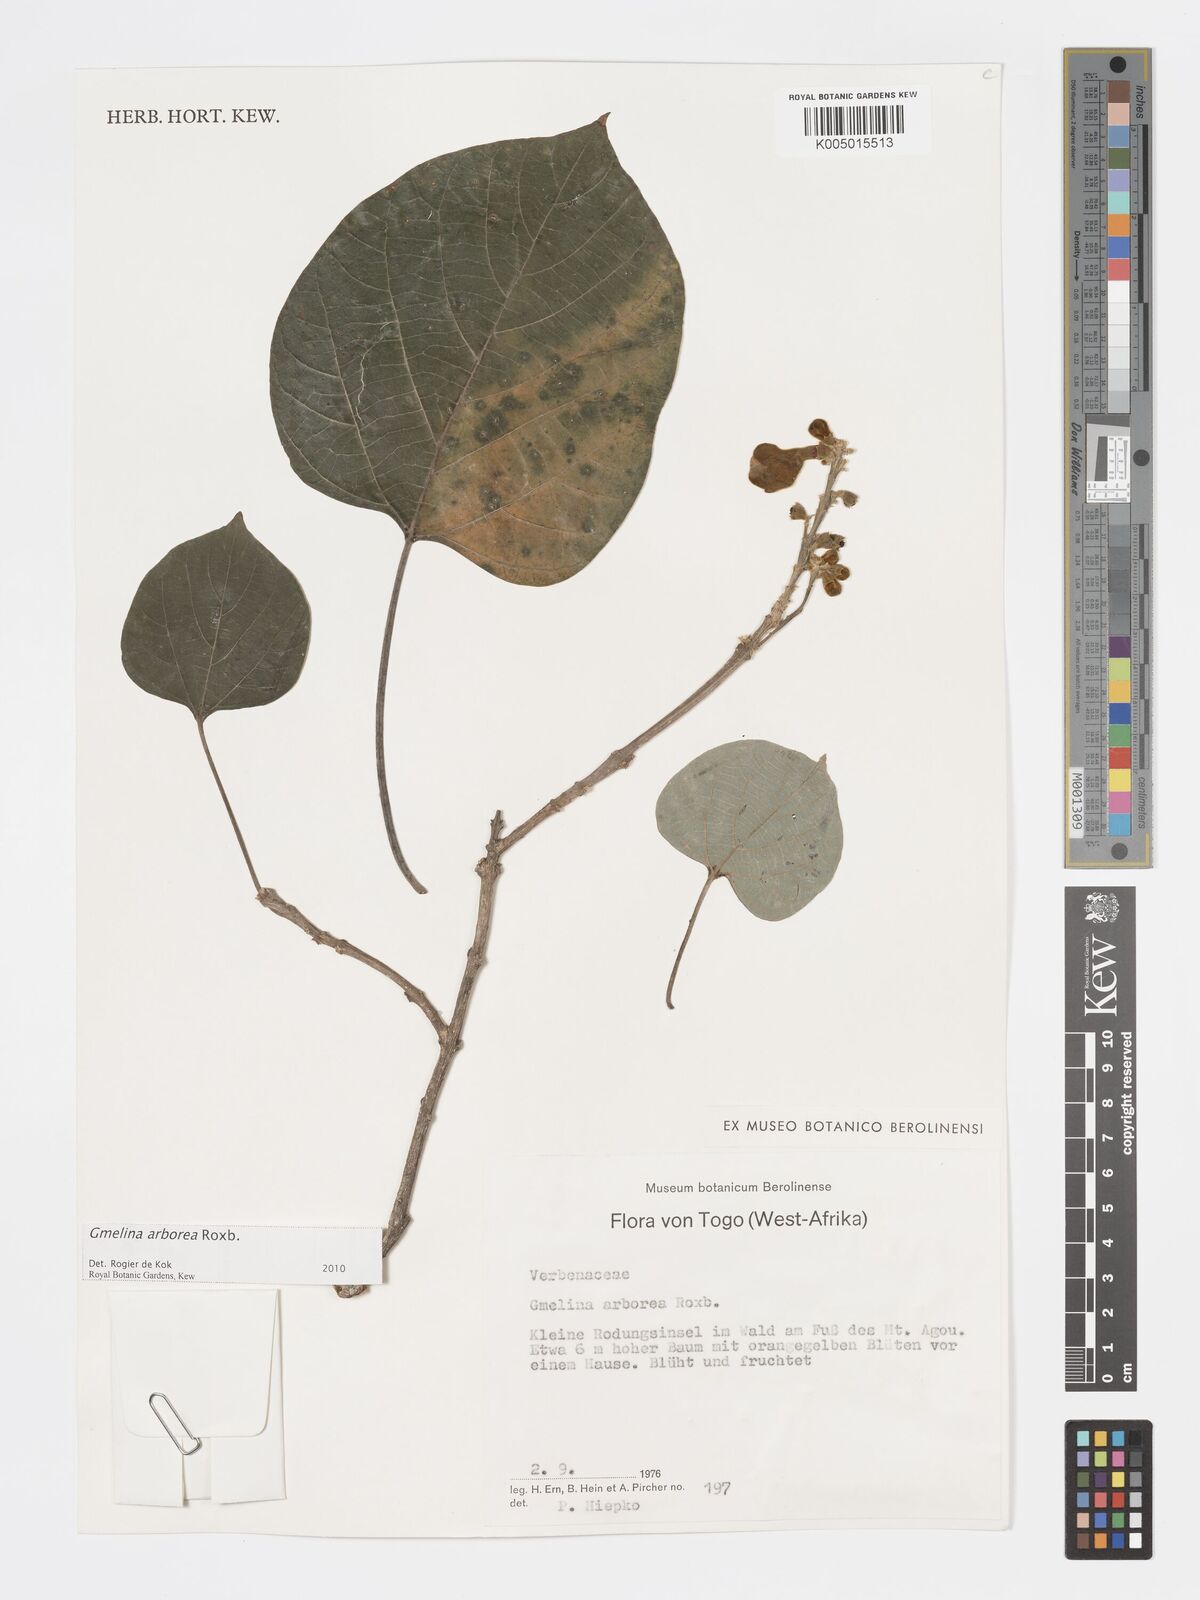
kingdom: Plantae
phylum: Tracheophyta
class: Magnoliopsida
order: Lamiales
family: Lamiaceae
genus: Gmelina
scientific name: Gmelina arborea
